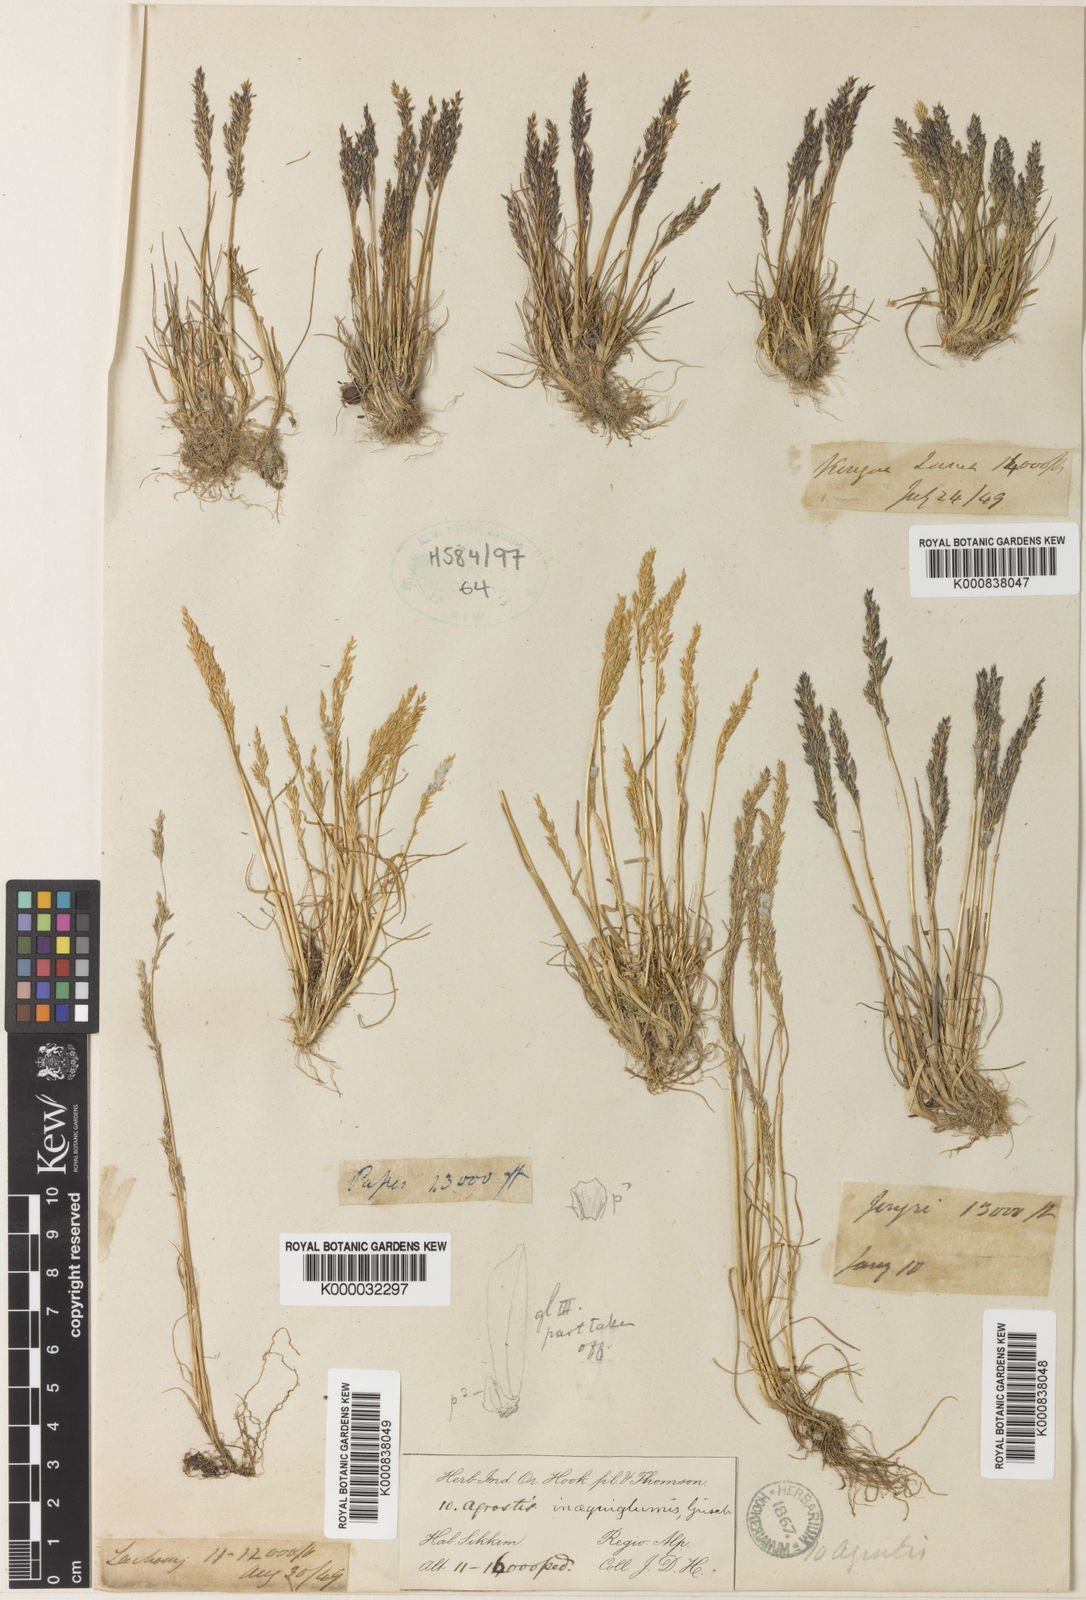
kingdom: Plantae
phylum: Tracheophyta
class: Liliopsida
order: Poales
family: Poaceae
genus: Agrostis
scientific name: Agrostis inaequiglumis
